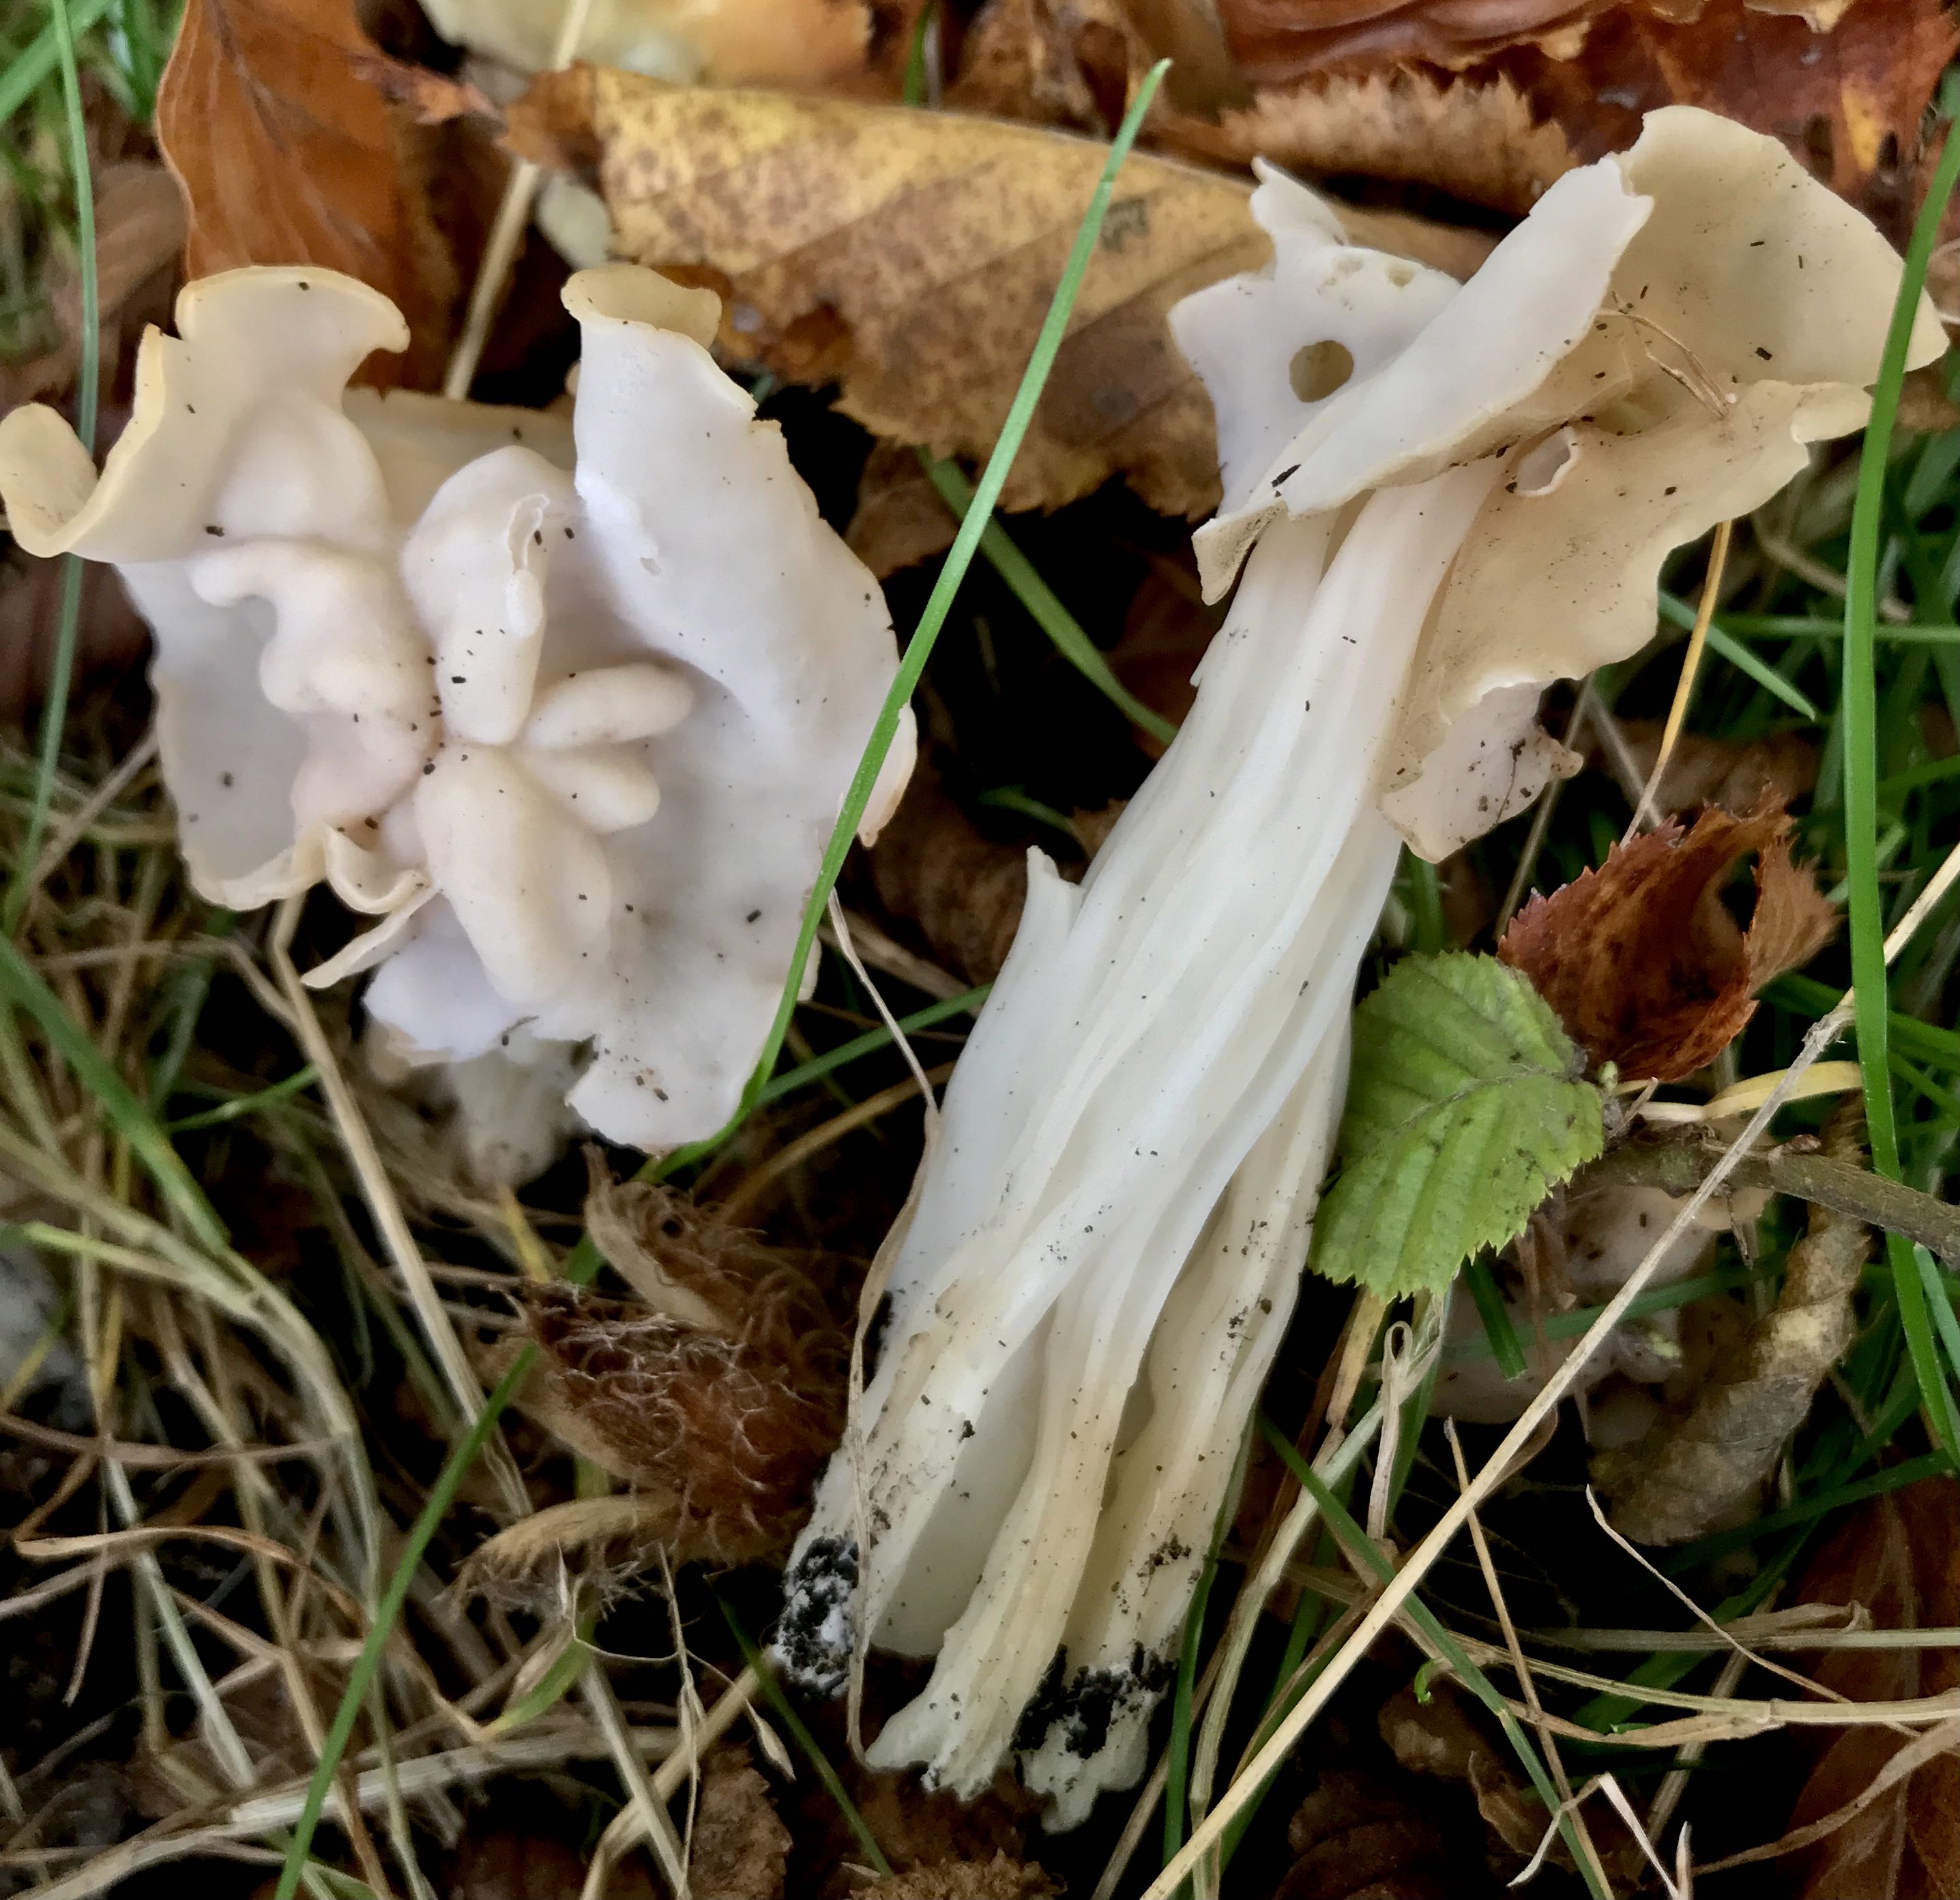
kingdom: Fungi
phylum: Ascomycota
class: Pezizomycetes
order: Pezizales
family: Helvellaceae
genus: Helvella
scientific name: Helvella crispa
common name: kruset foldhat
